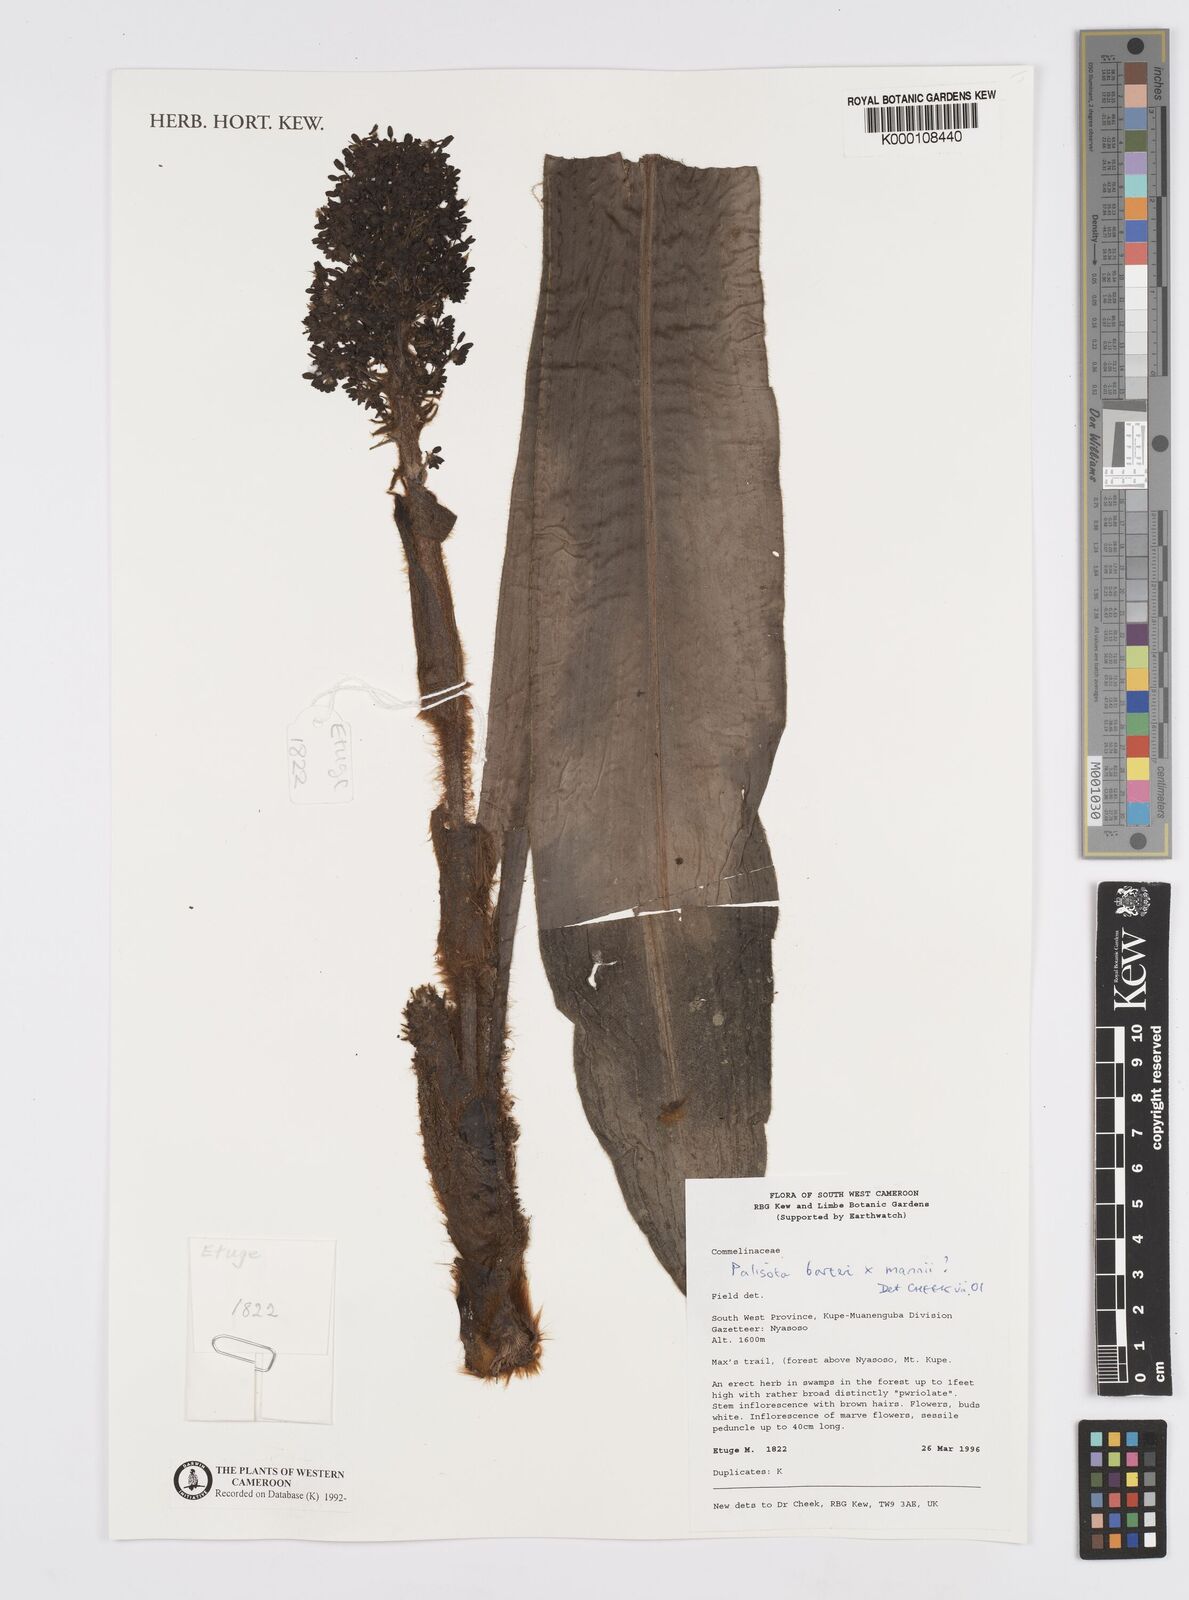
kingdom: Plantae
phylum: Tracheophyta
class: Liliopsida
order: Commelinales
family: Commelinaceae
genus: Palisota
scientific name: Palisota
